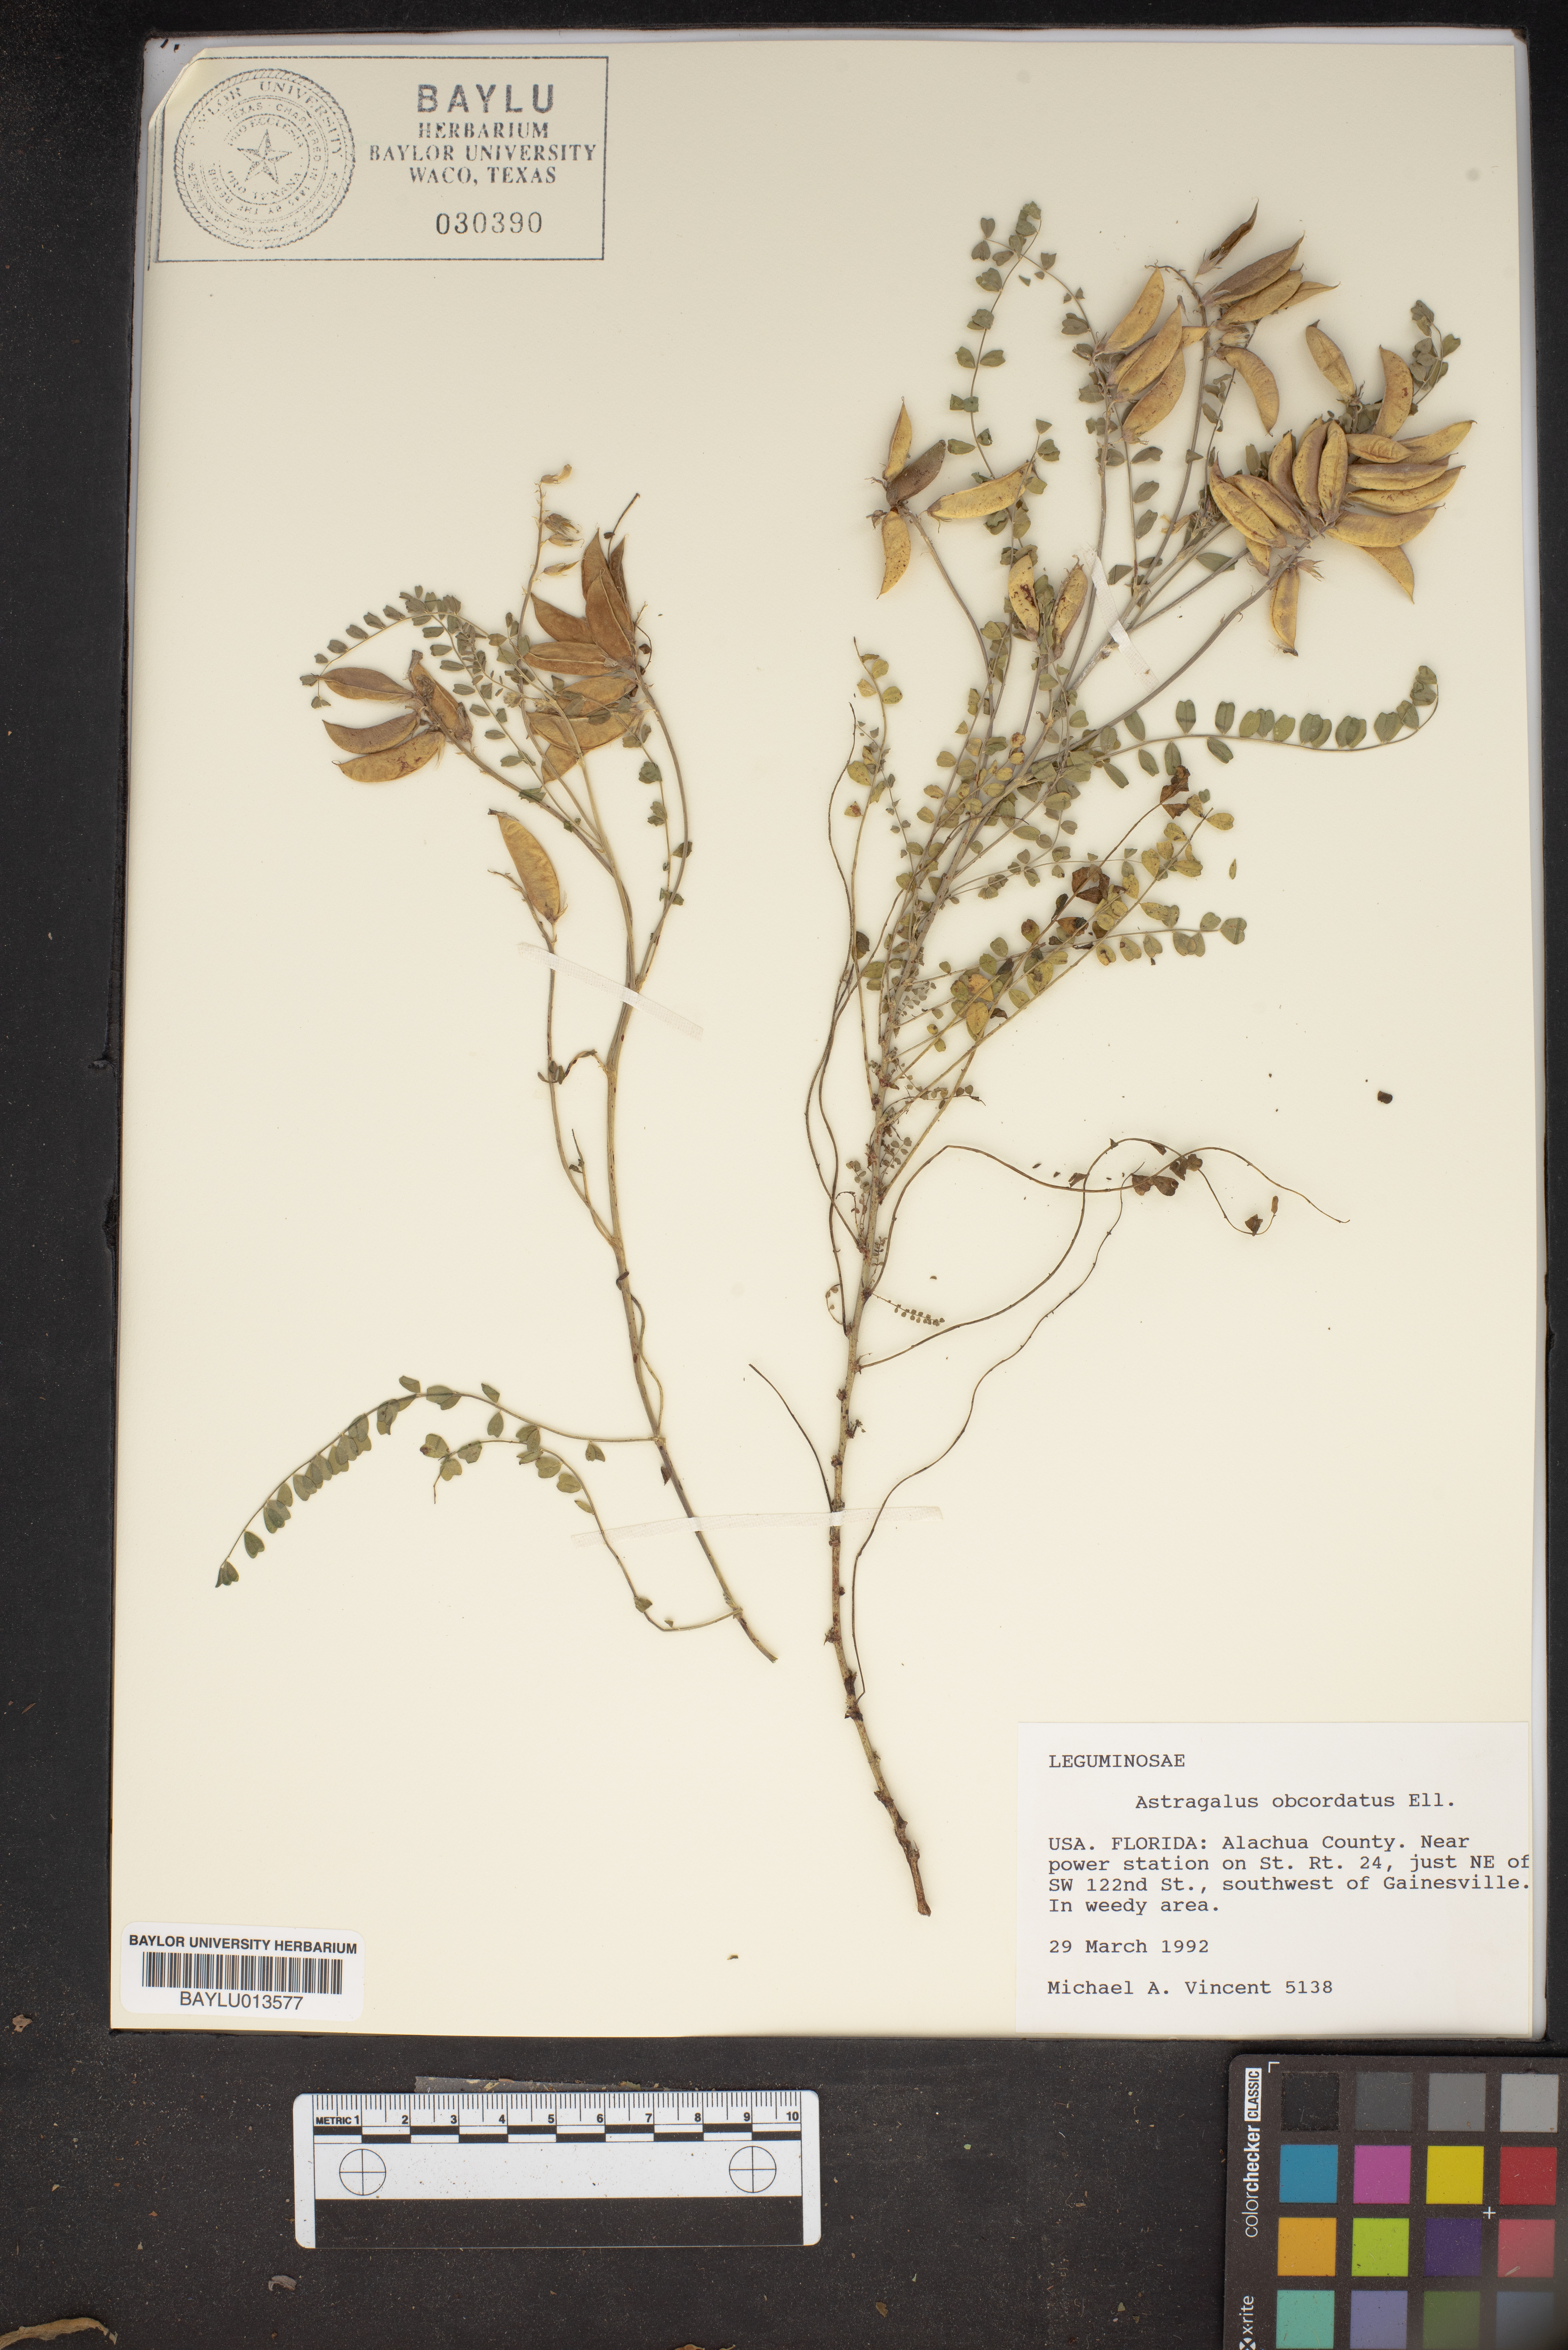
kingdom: Plantae
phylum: Tracheophyta
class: Magnoliopsida
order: Fabales
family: Fabaceae
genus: Astragalus
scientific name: Astragalus obcordatus
